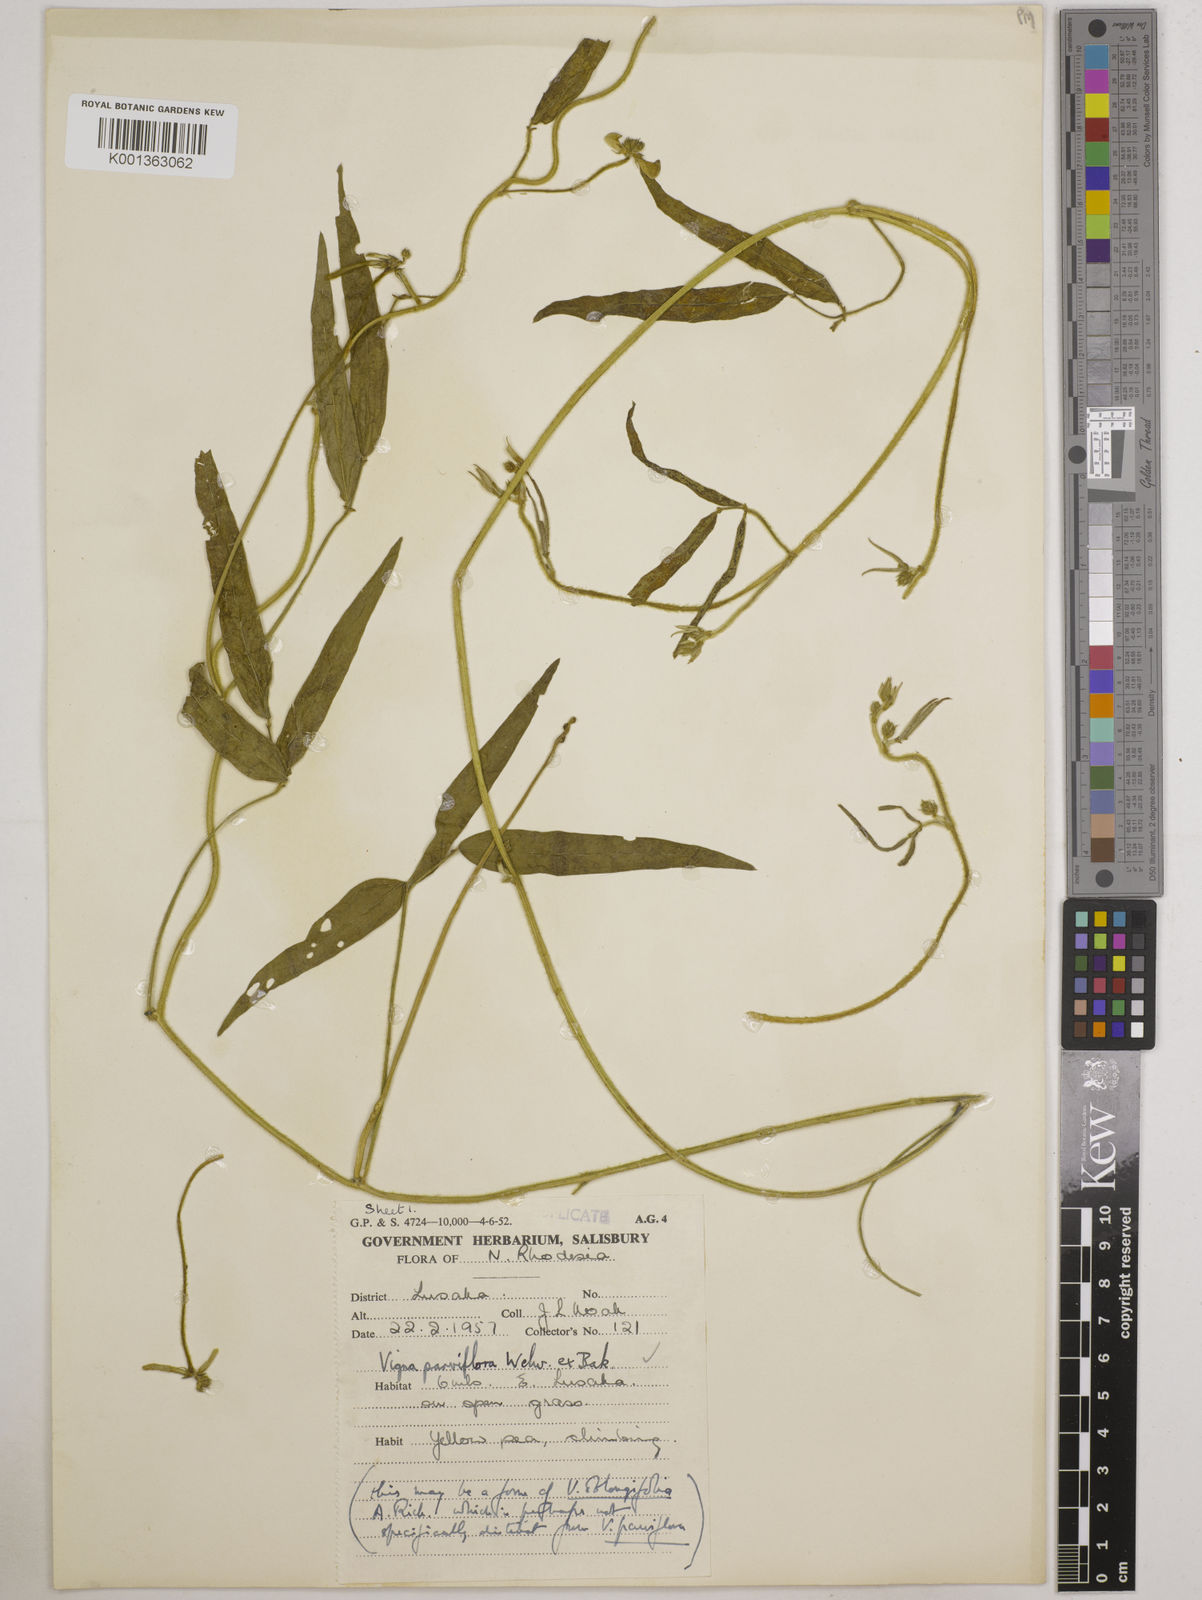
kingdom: Plantae
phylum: Tracheophyta
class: Magnoliopsida
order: Fabales
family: Fabaceae
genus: Vigna
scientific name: Vigna
